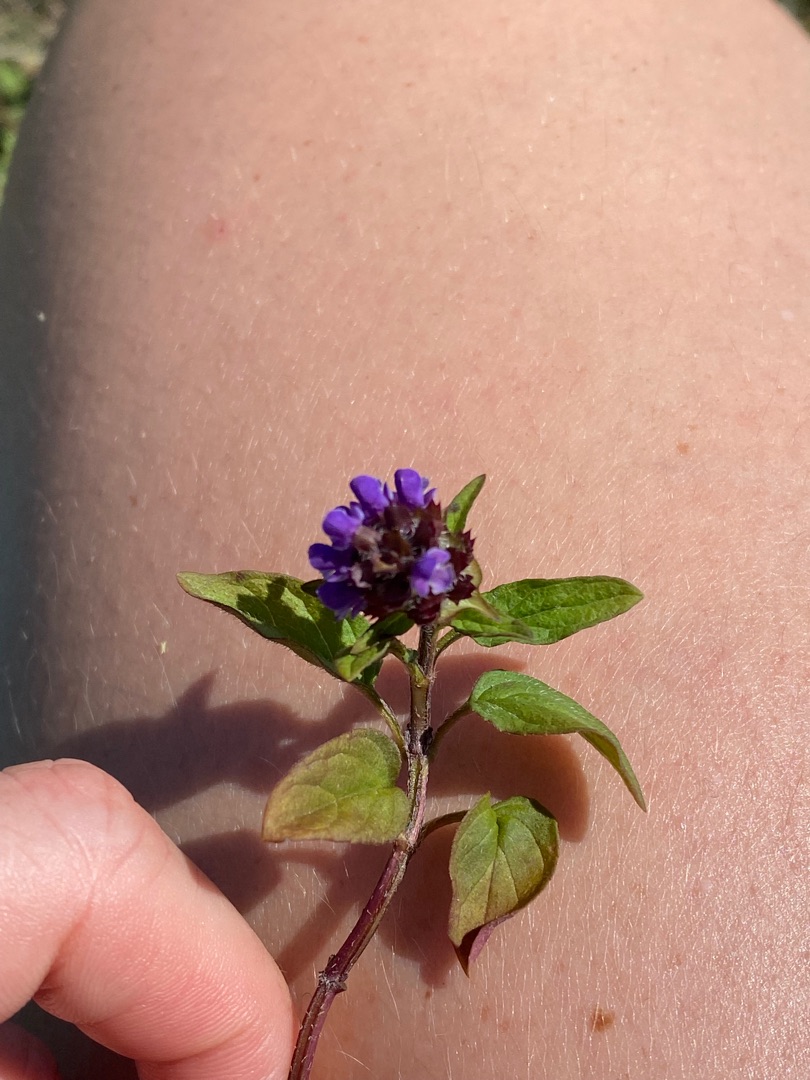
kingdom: Plantae
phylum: Tracheophyta
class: Magnoliopsida
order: Lamiales
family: Lamiaceae
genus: Prunella
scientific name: Prunella vulgaris
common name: Almindelig brunelle
